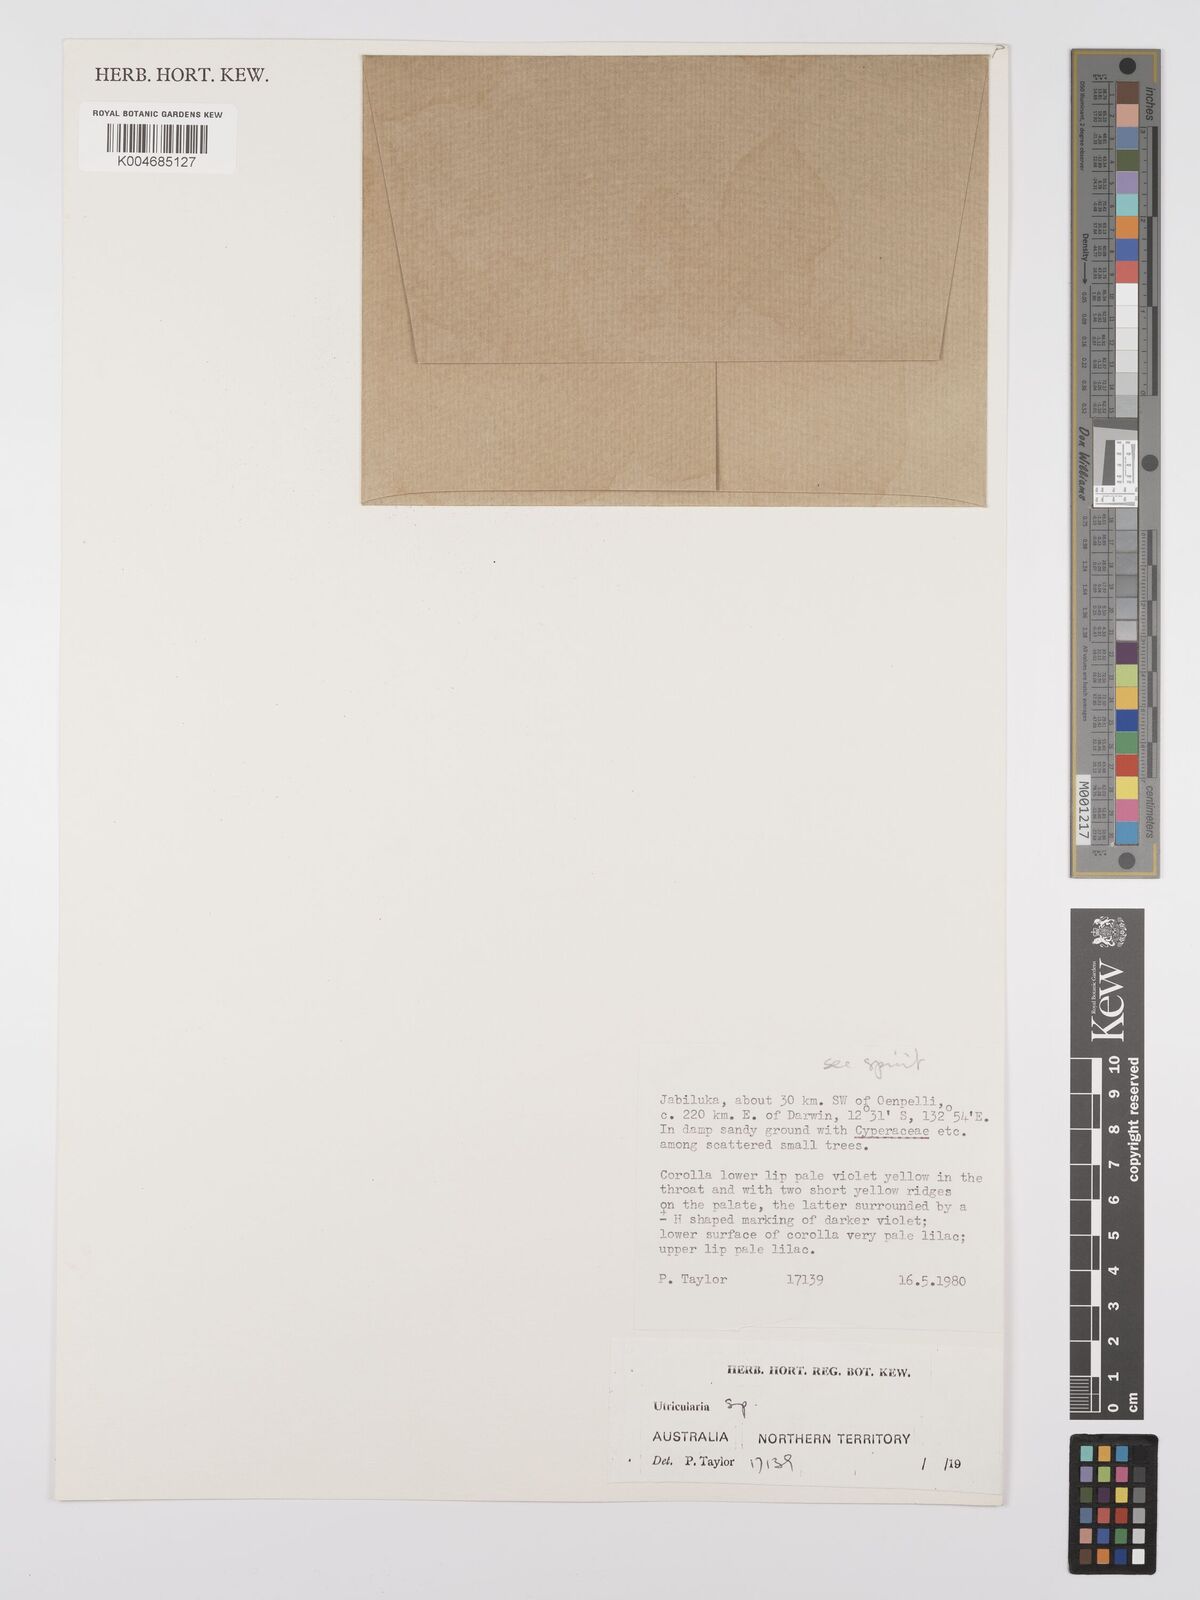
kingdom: Plantae
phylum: Tracheophyta
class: Magnoliopsida
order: Lamiales
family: Lentibulariaceae
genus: Utricularia
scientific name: Utricularia lasiocaulis
